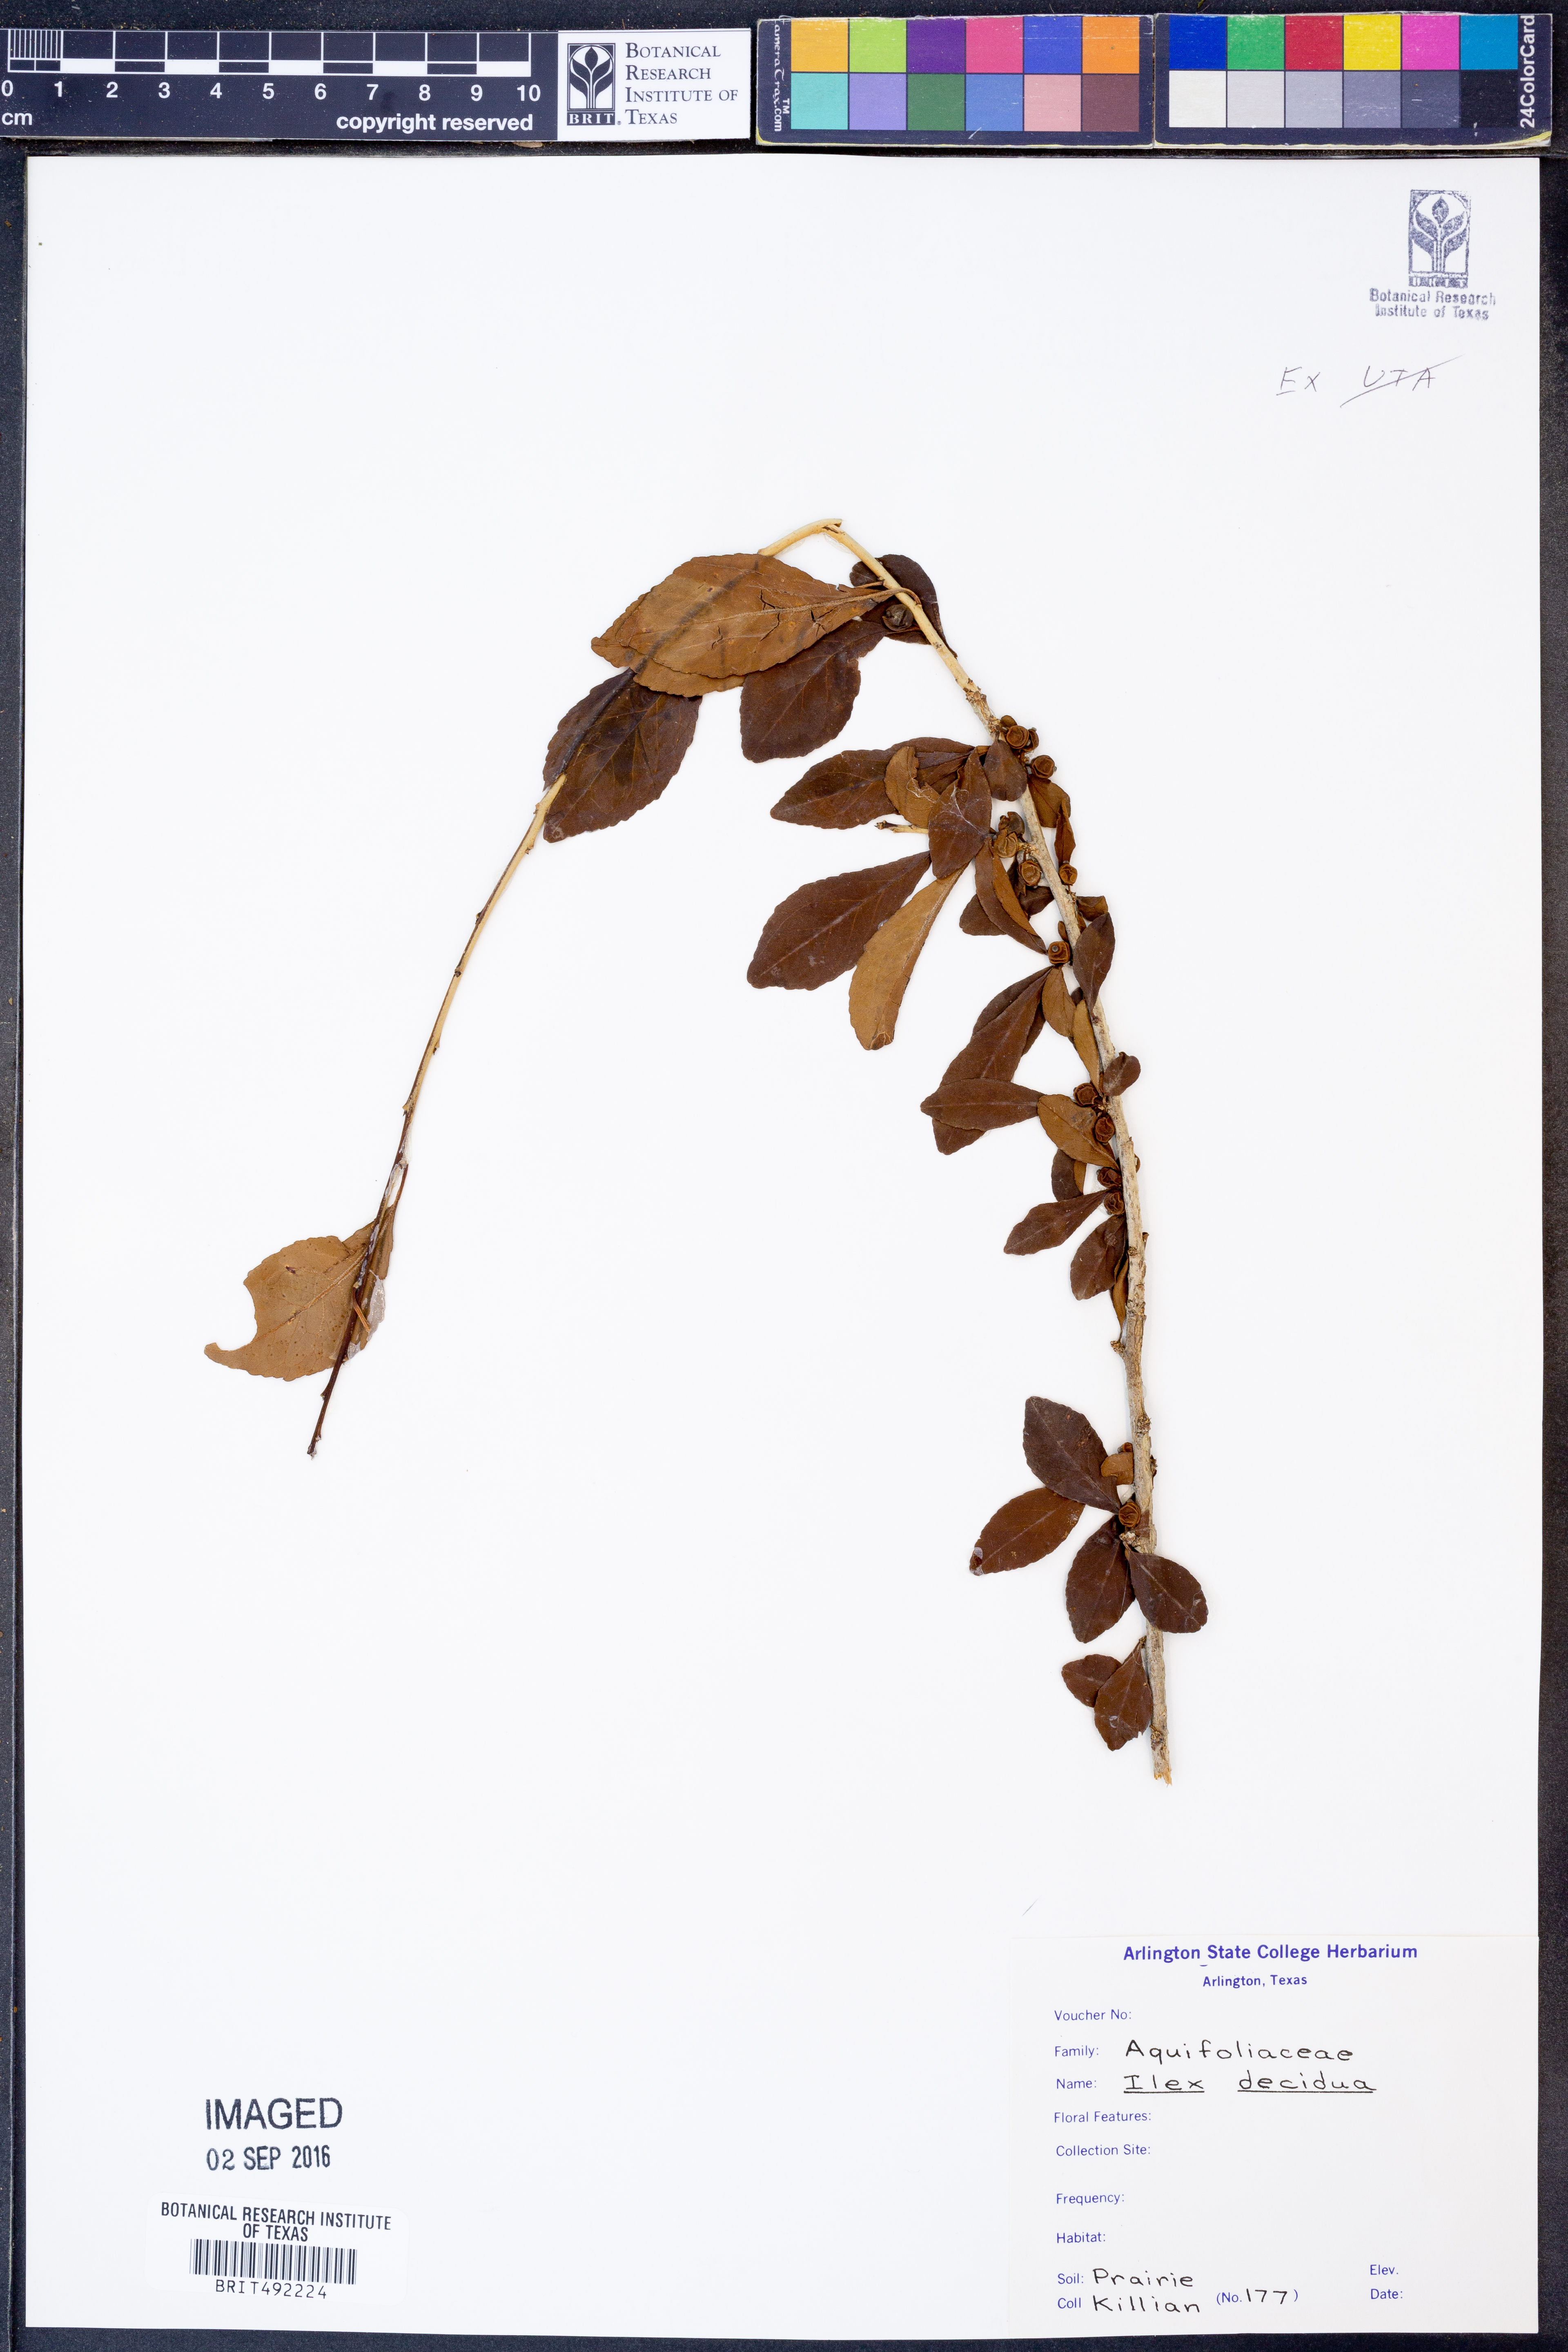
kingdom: Plantae
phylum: Tracheophyta
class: Magnoliopsida
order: Aquifoliales
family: Aquifoliaceae
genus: Ilex
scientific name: Ilex decidua
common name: Possum-haw
